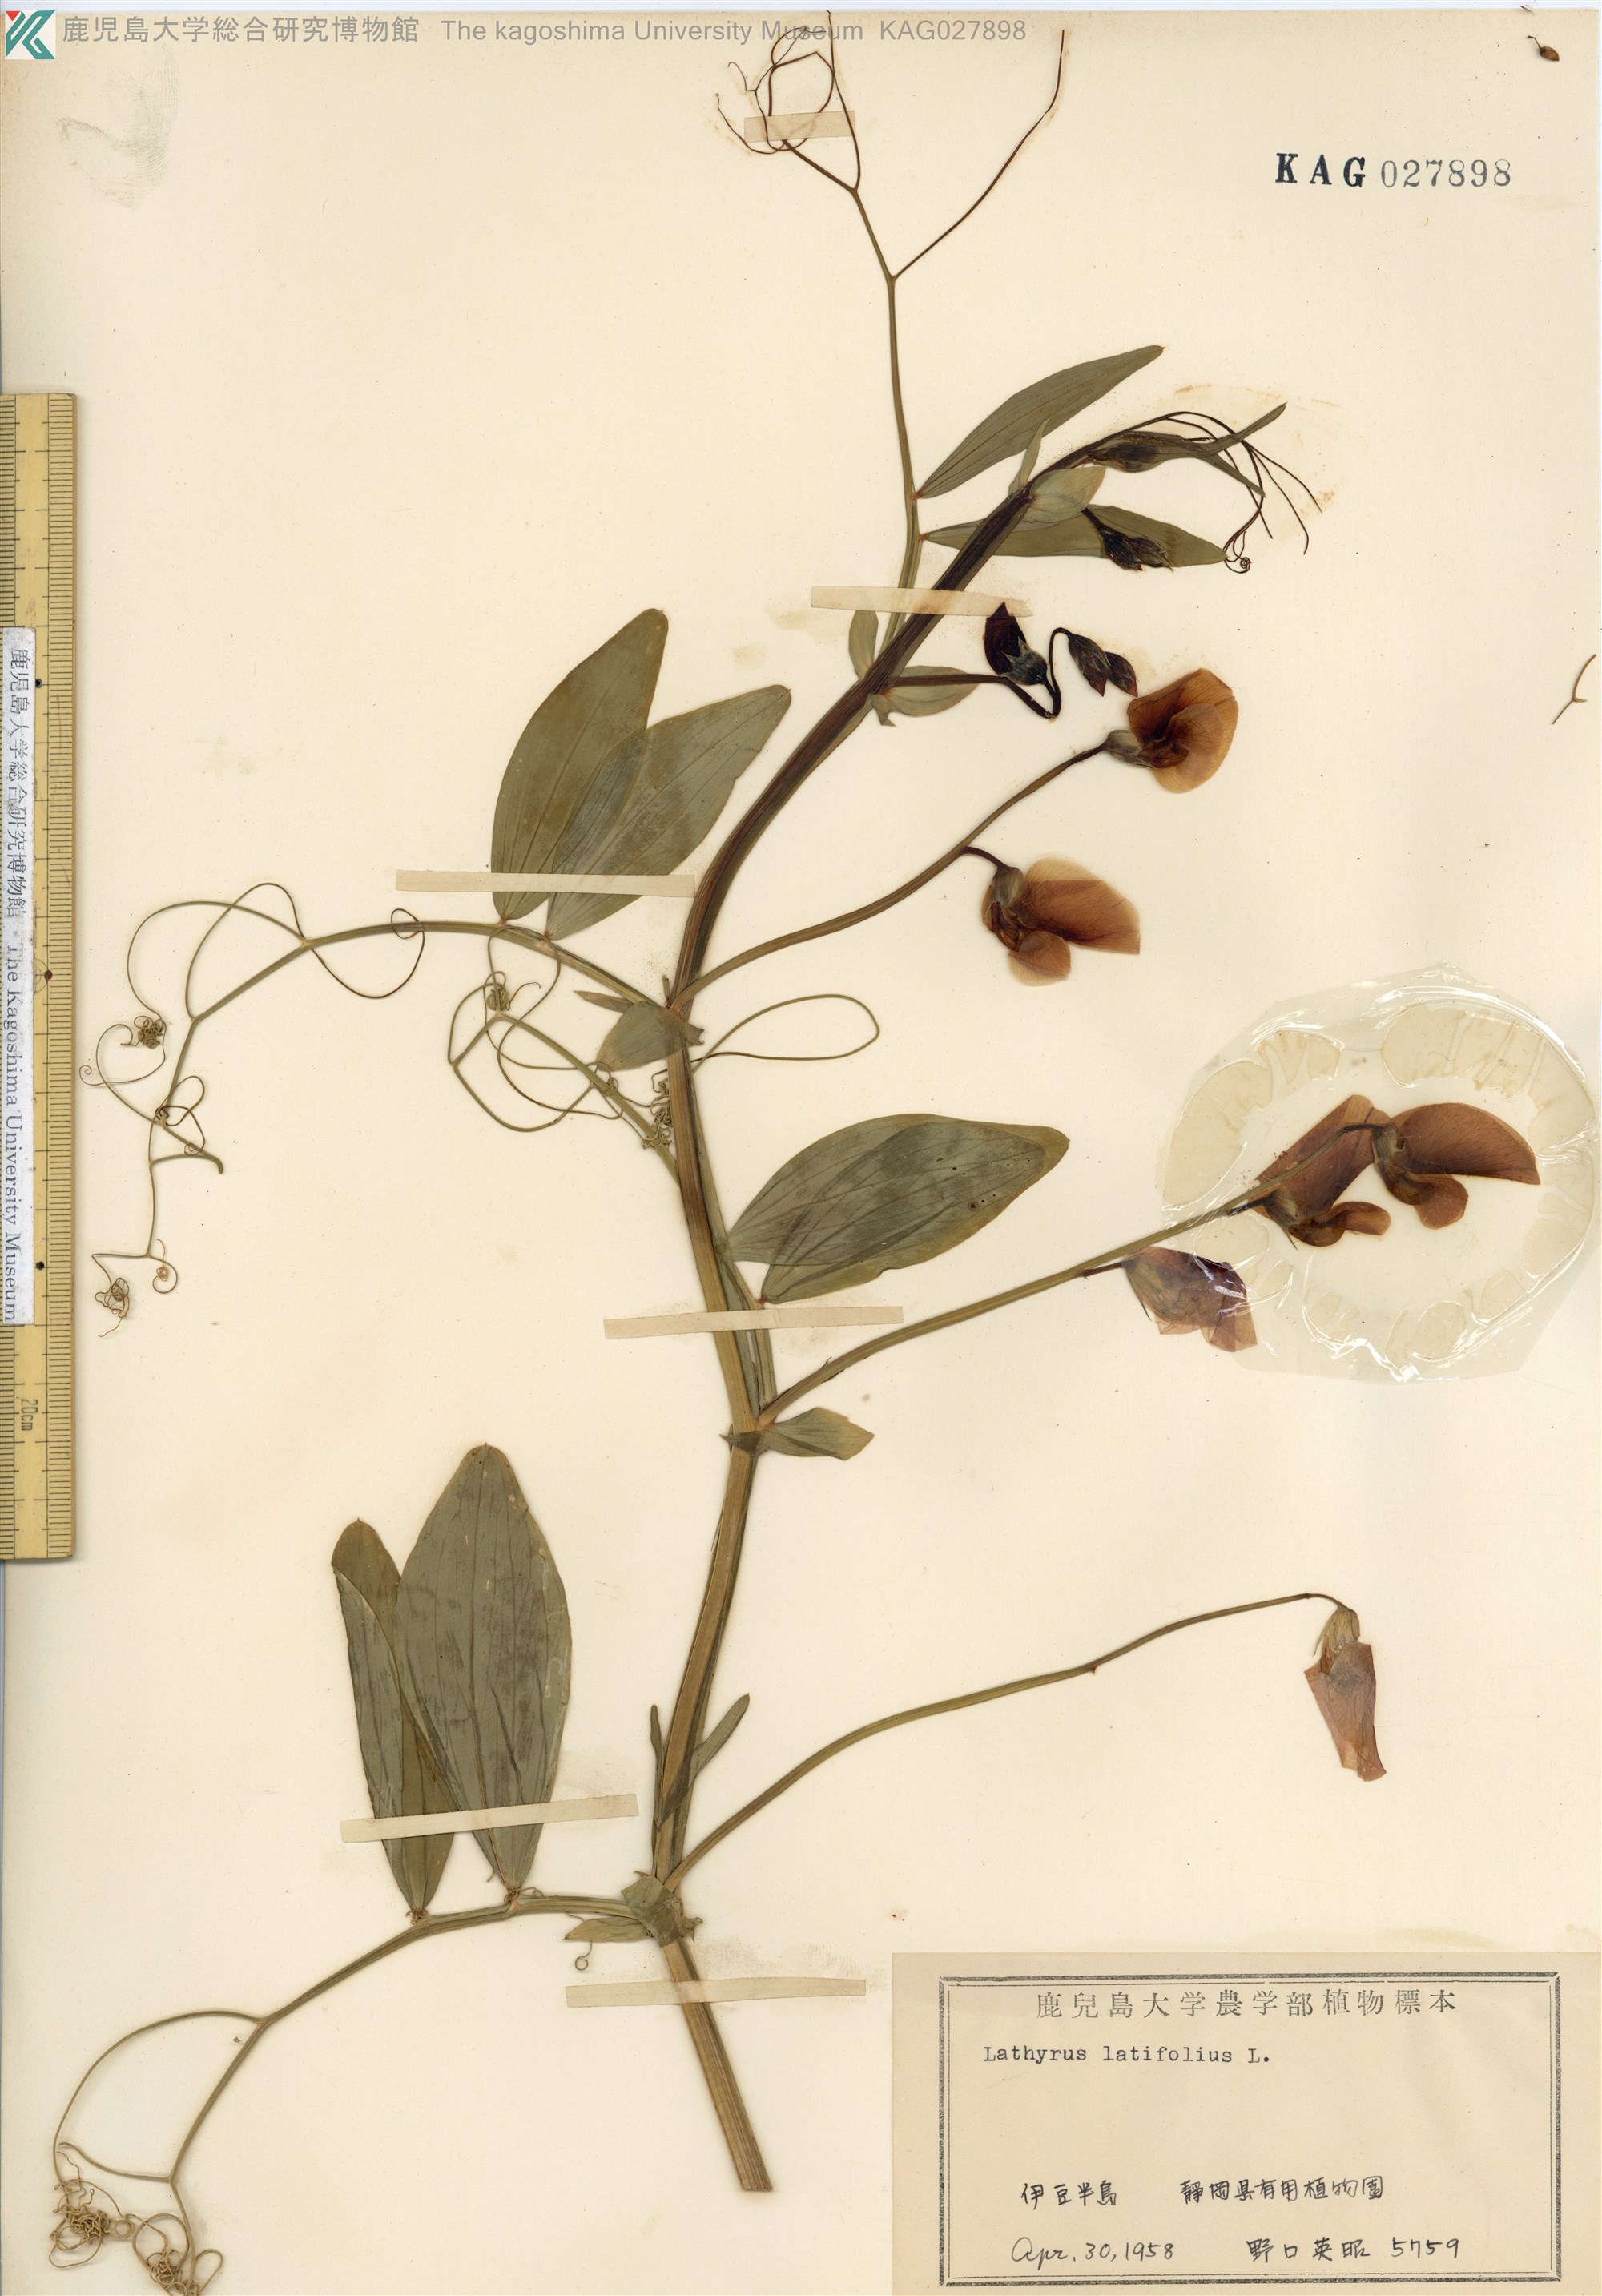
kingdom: Plantae
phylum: Tracheophyta
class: Magnoliopsida
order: Fabales
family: Fabaceae
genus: Lathyrus
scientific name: Lathyrus latifolius
